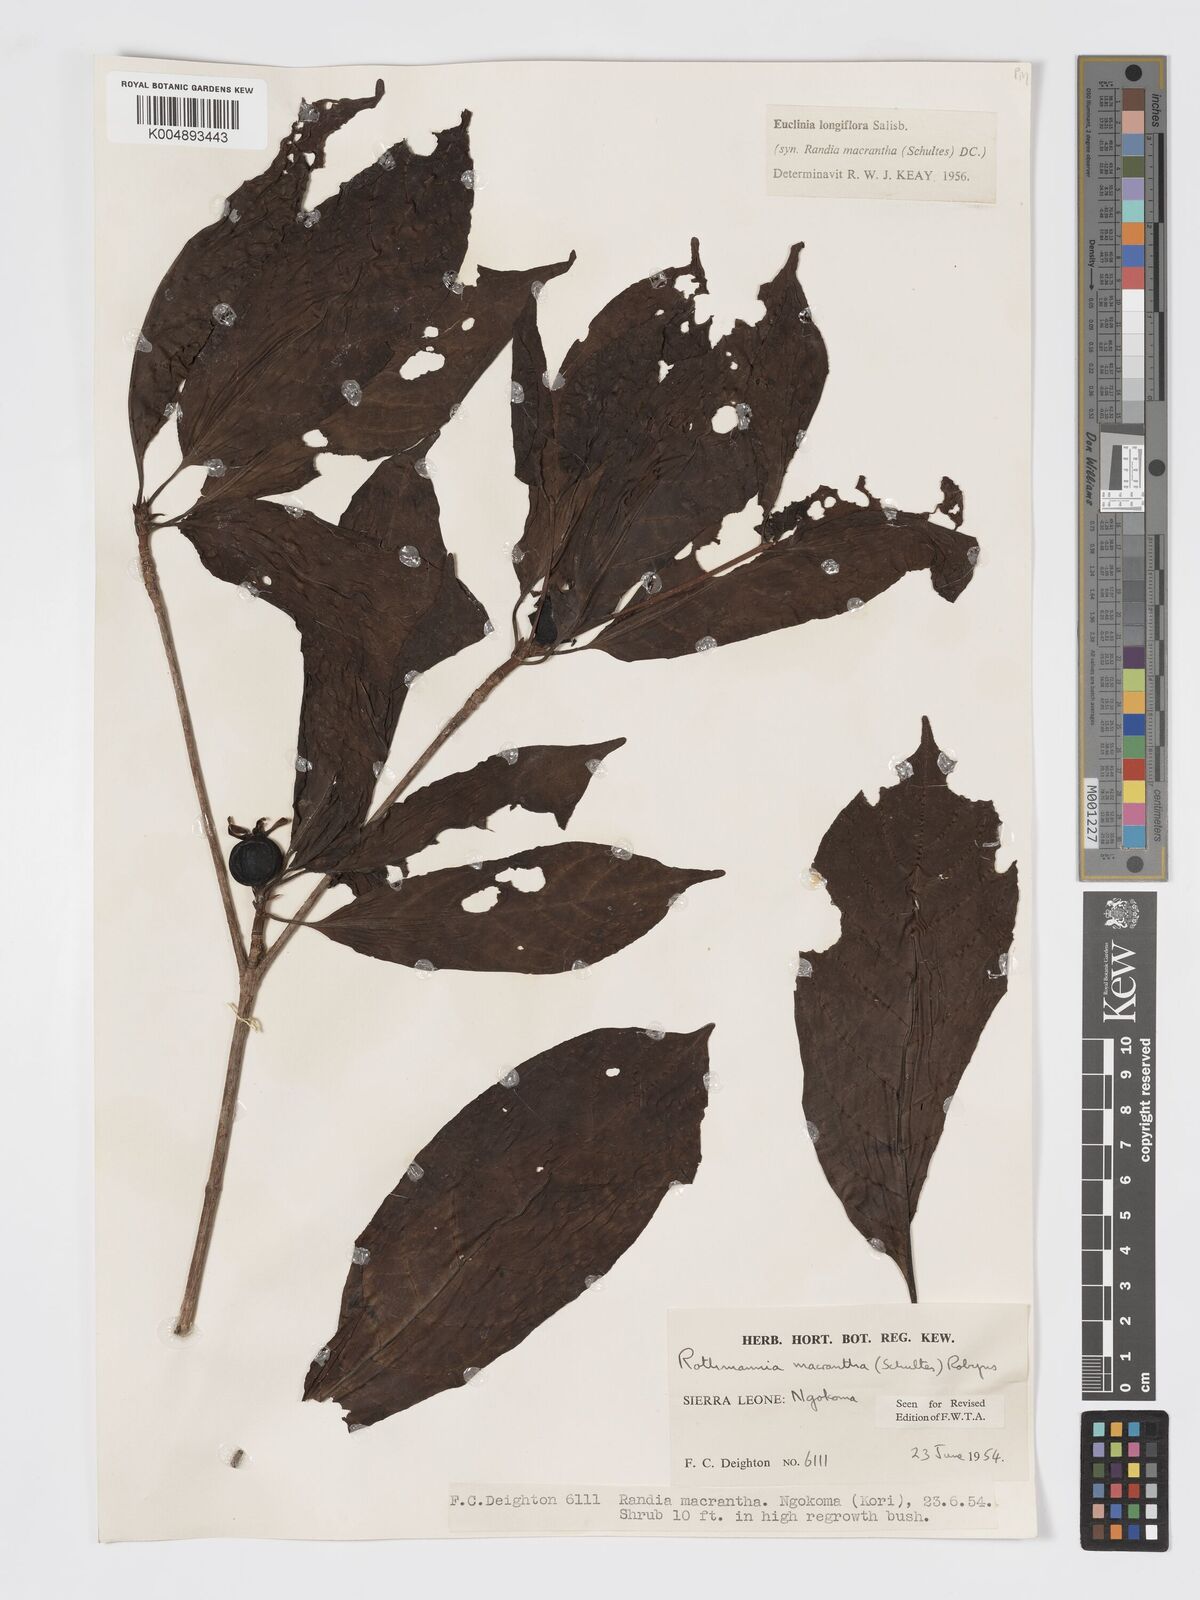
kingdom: Plantae
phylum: Tracheophyta
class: Magnoliopsida
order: Gentianales
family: Rubiaceae
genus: Euclinia
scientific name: Euclinia longiflora
